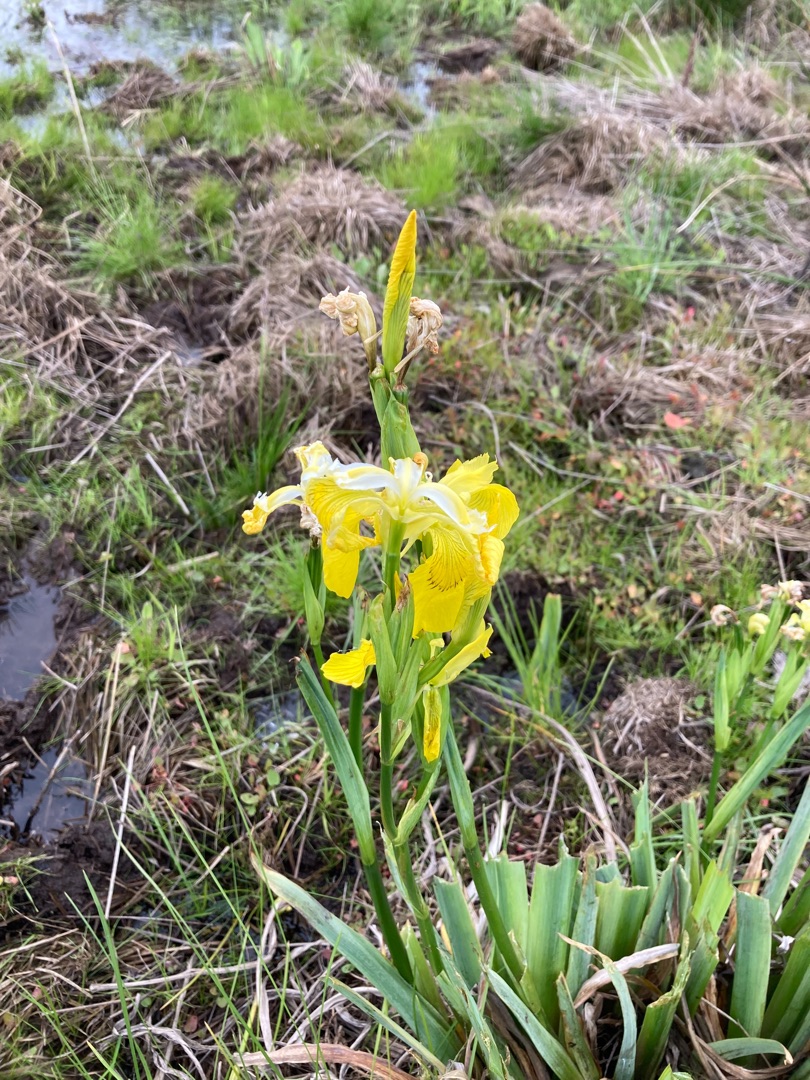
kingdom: Plantae
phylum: Tracheophyta
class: Liliopsida
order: Asparagales
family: Iridaceae
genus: Iris
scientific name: Iris pseudacorus
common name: Gul iris
